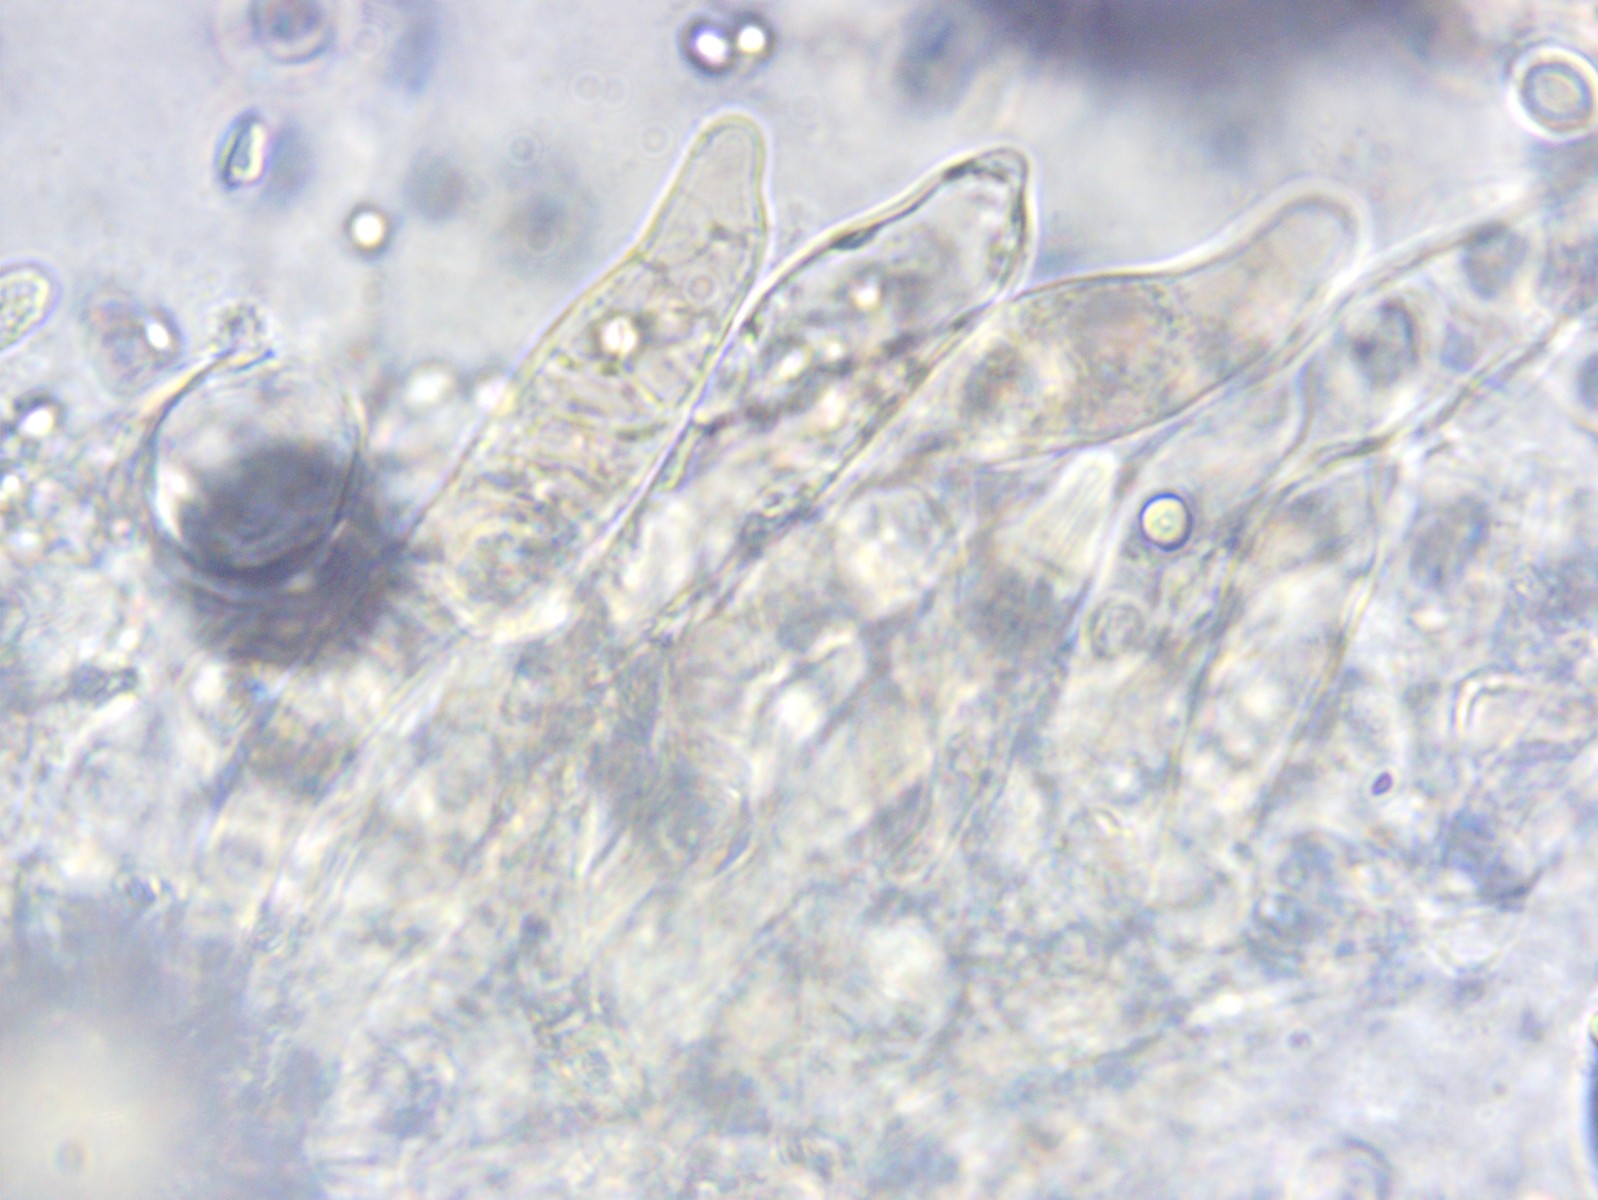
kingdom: Fungi
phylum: Basidiomycota
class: Agaricomycetes
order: Agaricales
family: Mycenaceae
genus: Mycena
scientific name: Mycena capillaripes
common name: nåle-huesvamp
